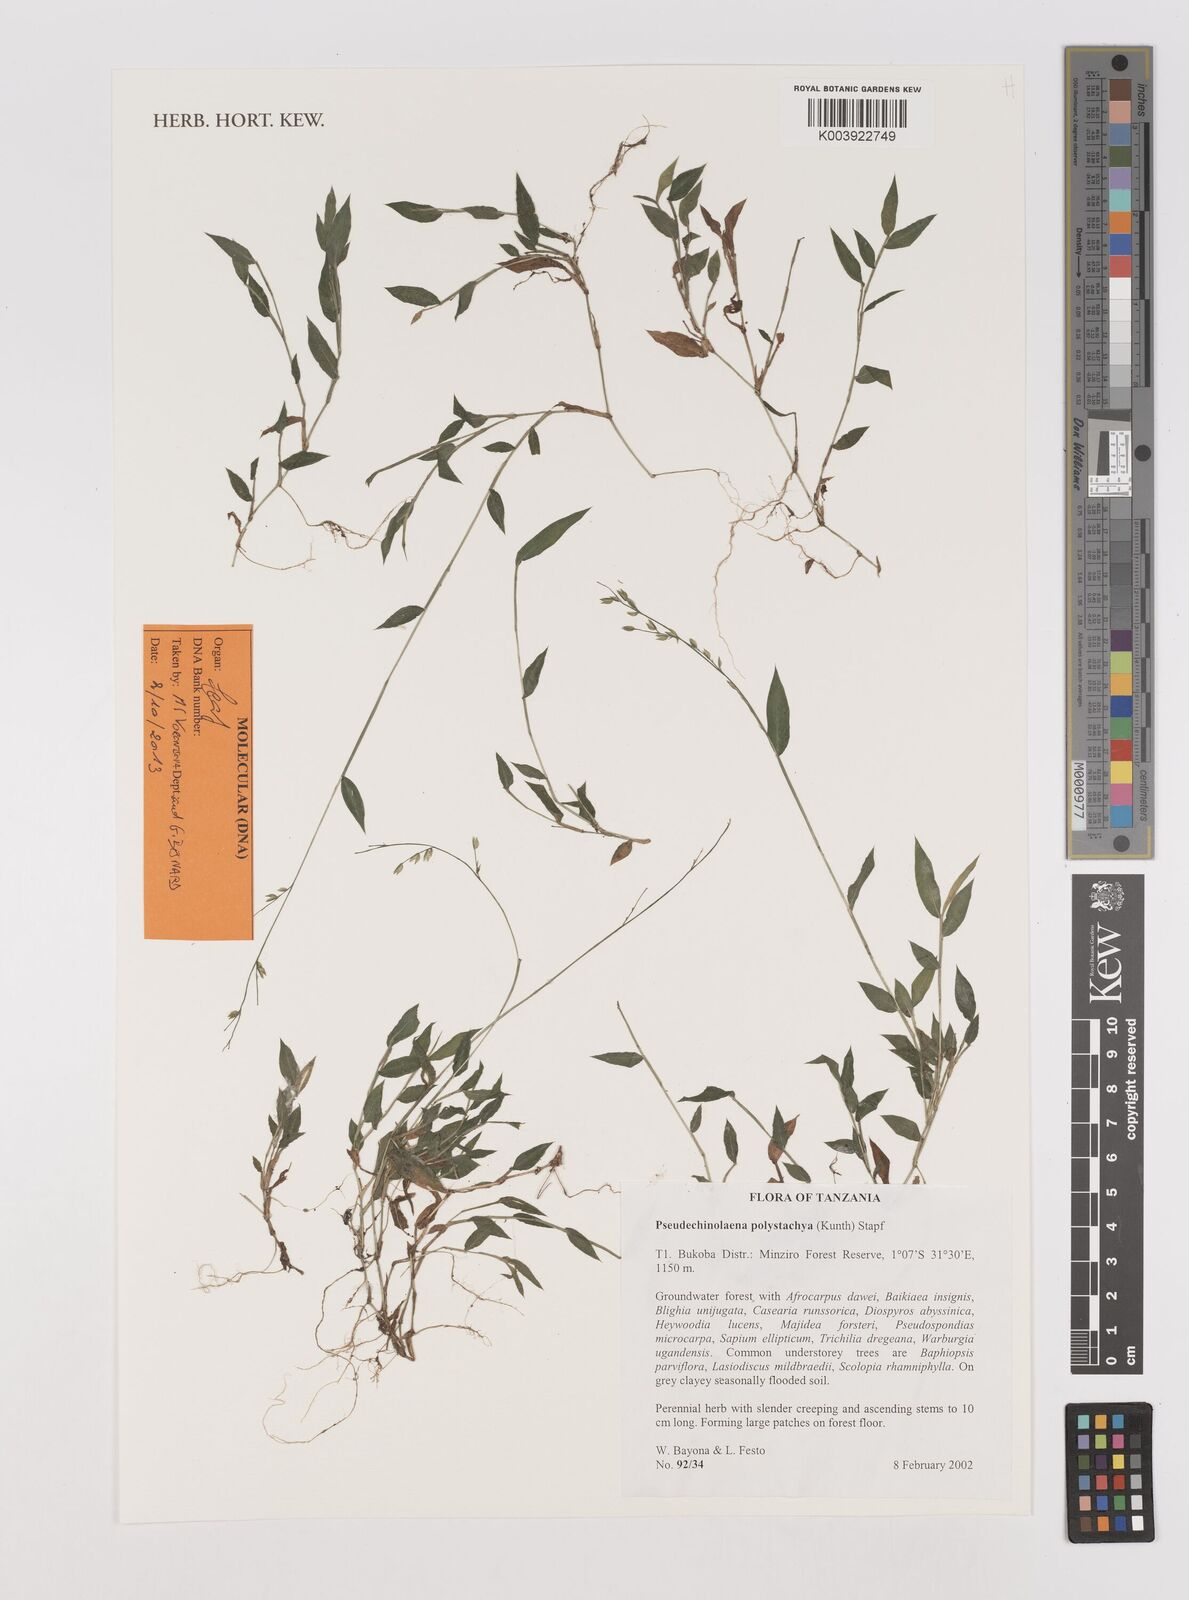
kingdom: Plantae
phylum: Tracheophyta
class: Liliopsida
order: Poales
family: Poaceae
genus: Pseudechinolaena
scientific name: Pseudechinolaena polystachya
